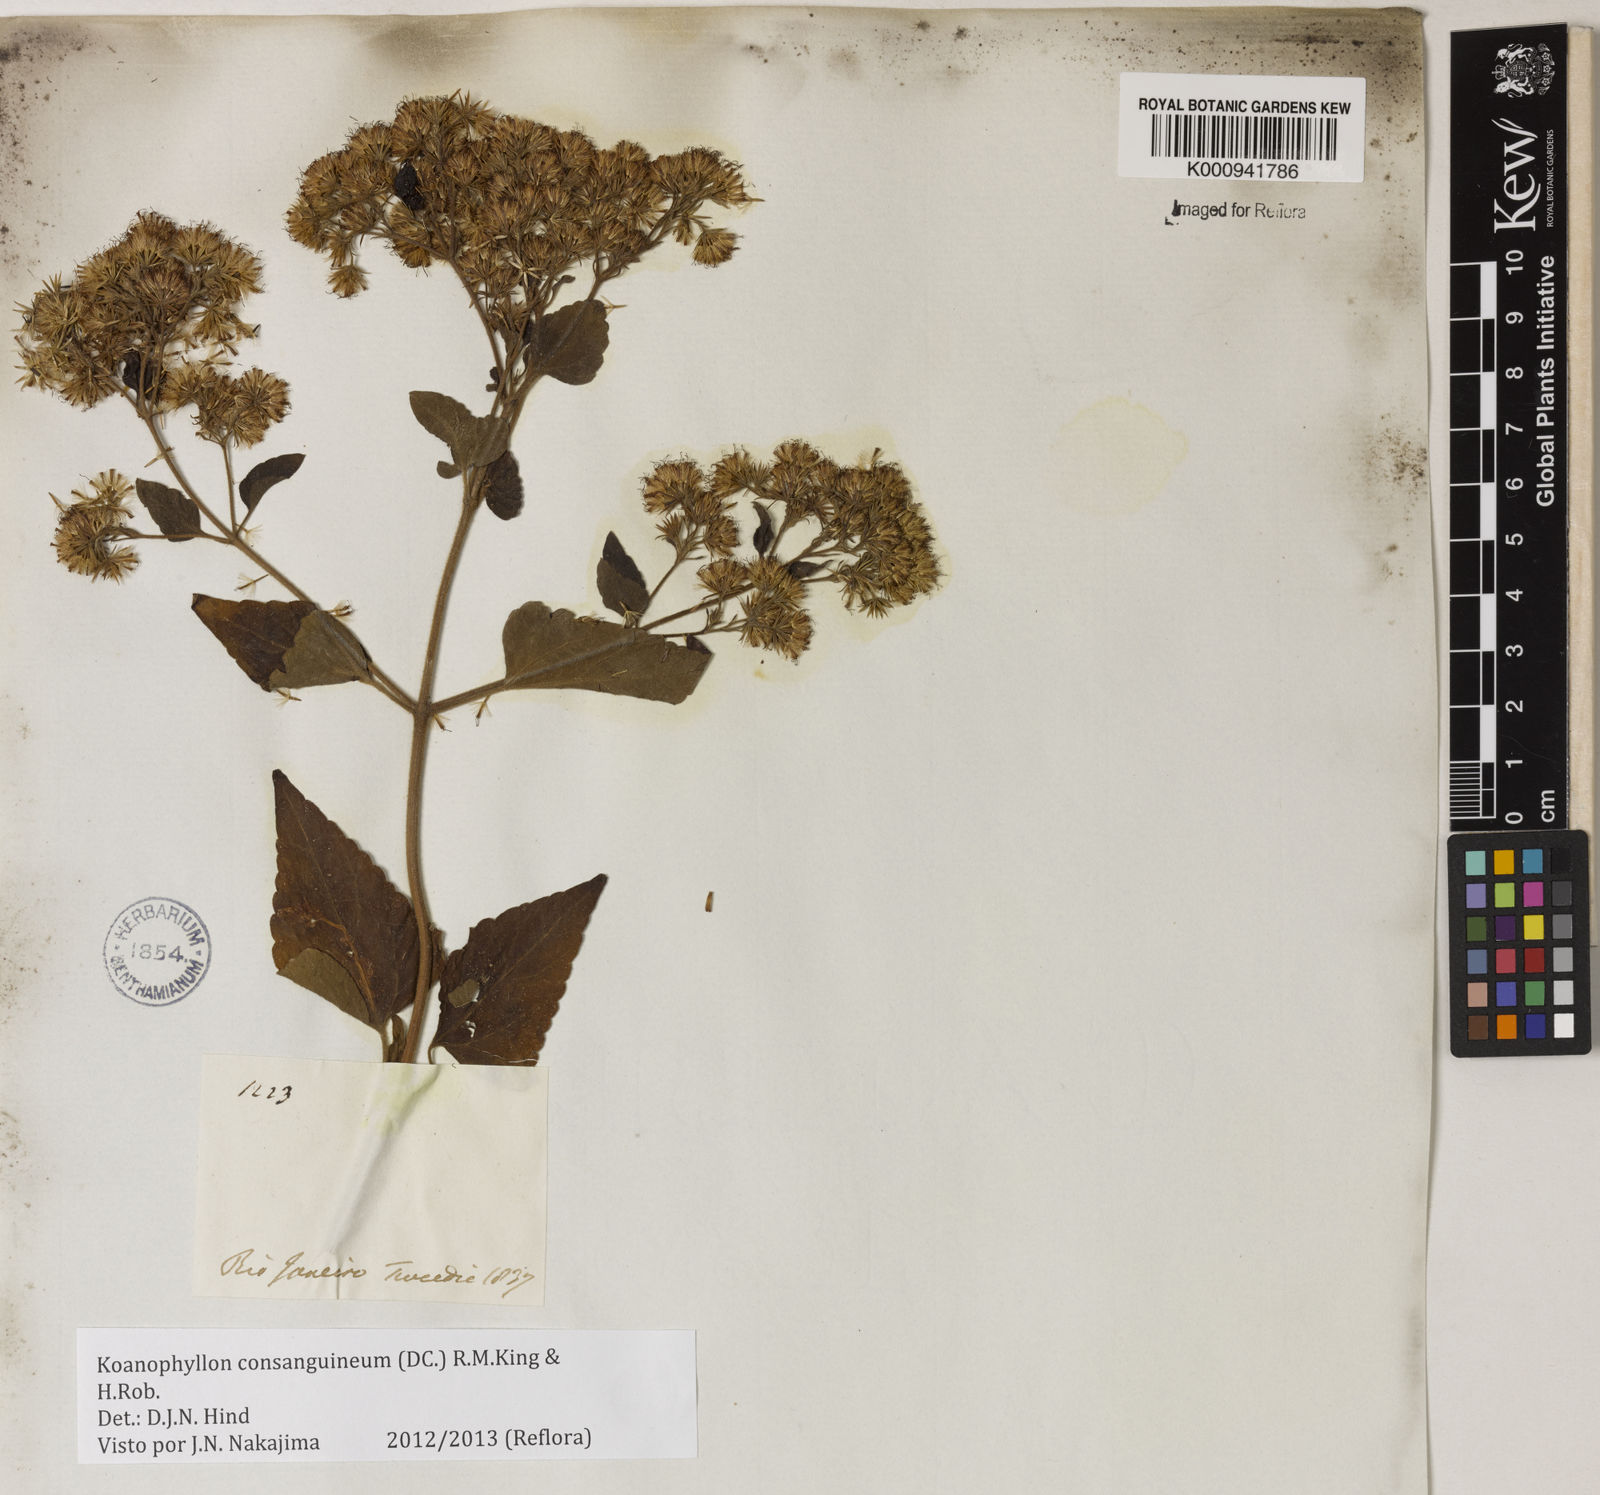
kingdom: Plantae
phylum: Tracheophyta
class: Magnoliopsida
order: Asterales
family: Asteraceae
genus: Koanophyllon
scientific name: Koanophyllon consanguineum
